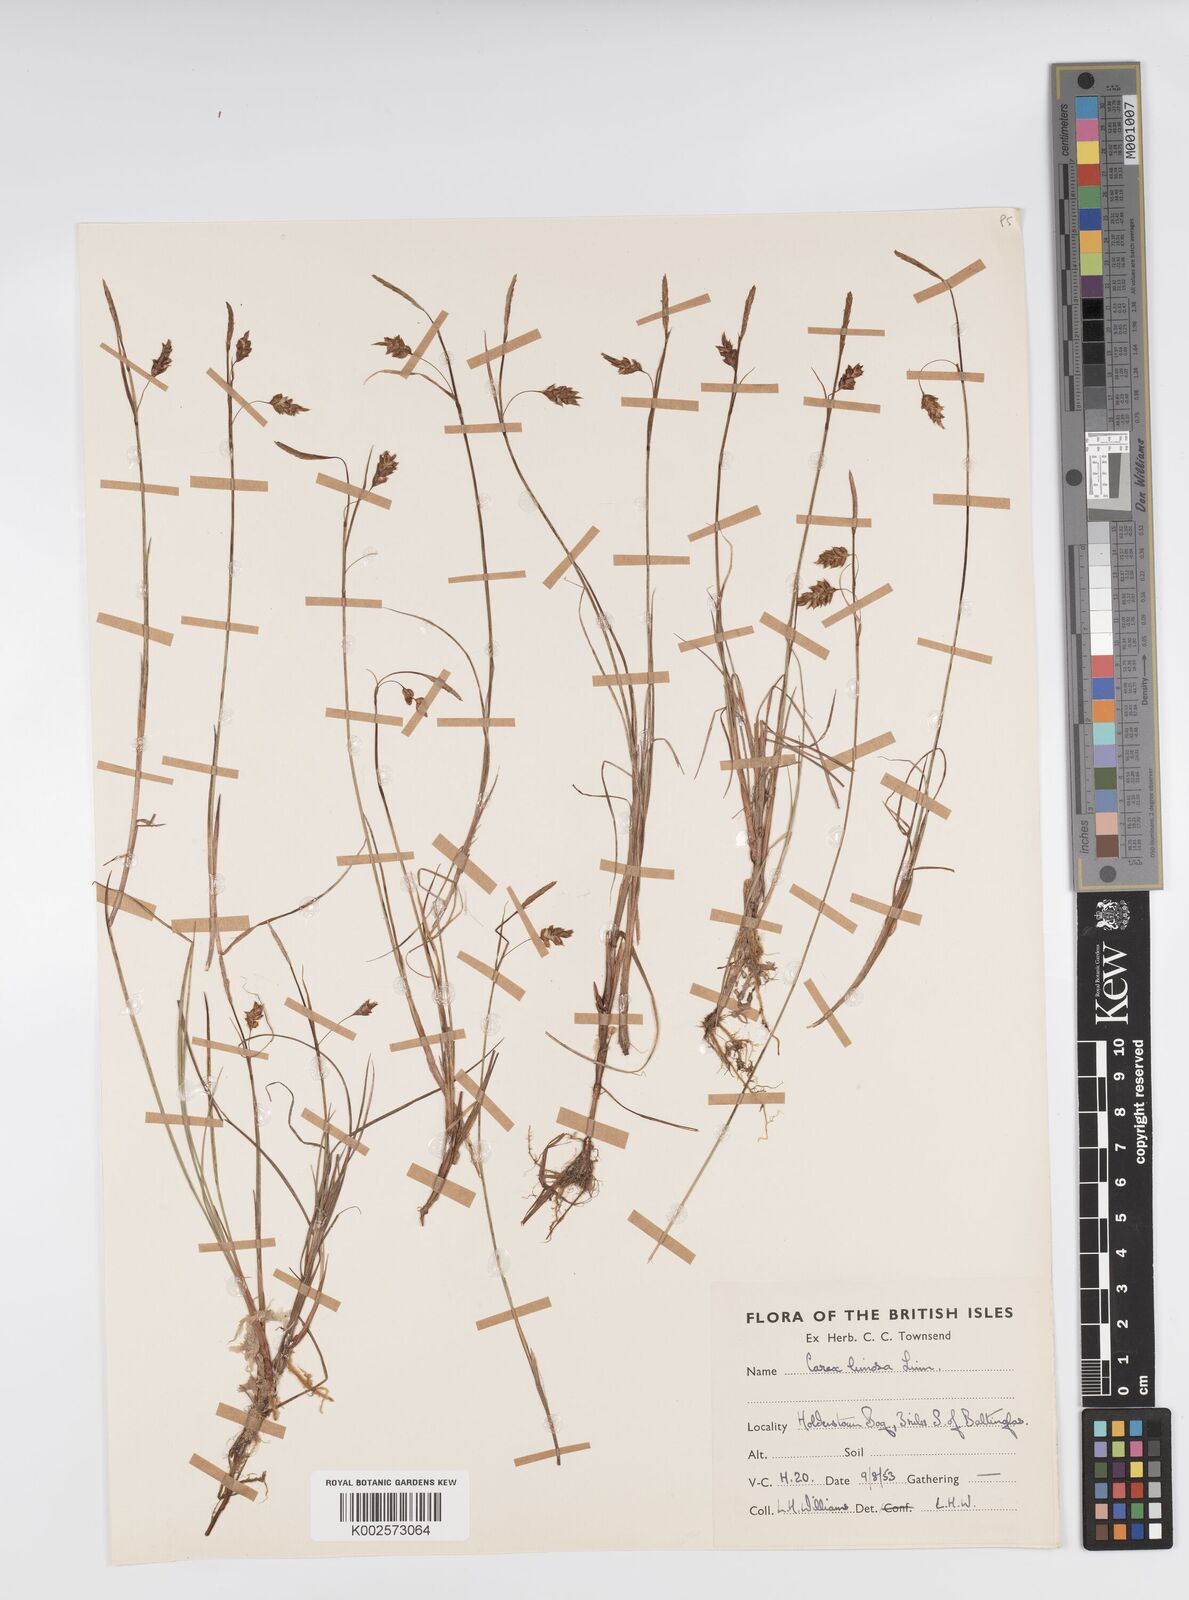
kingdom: Plantae
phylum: Tracheophyta
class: Liliopsida
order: Poales
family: Cyperaceae
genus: Carex
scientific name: Carex limosa
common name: Bog sedge
